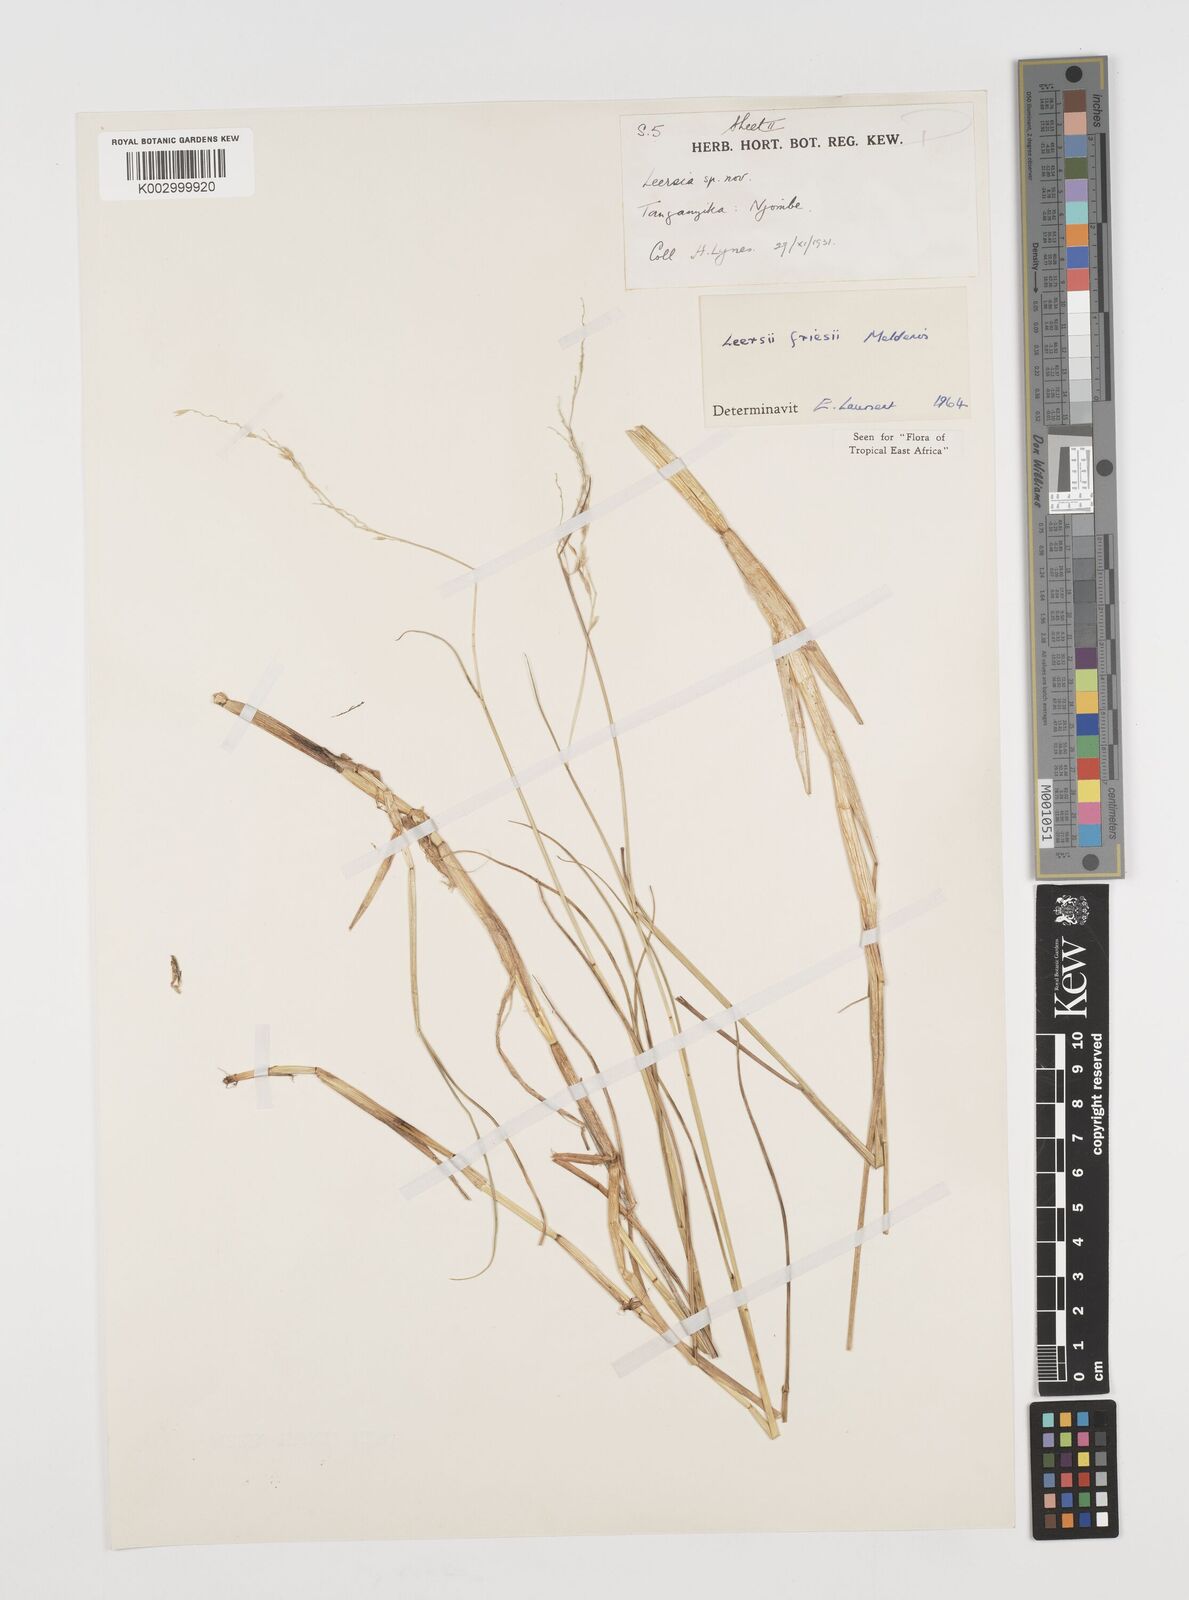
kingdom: Plantae
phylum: Tracheophyta
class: Liliopsida
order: Poales
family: Poaceae
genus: Leersia
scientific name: Leersia friesii
